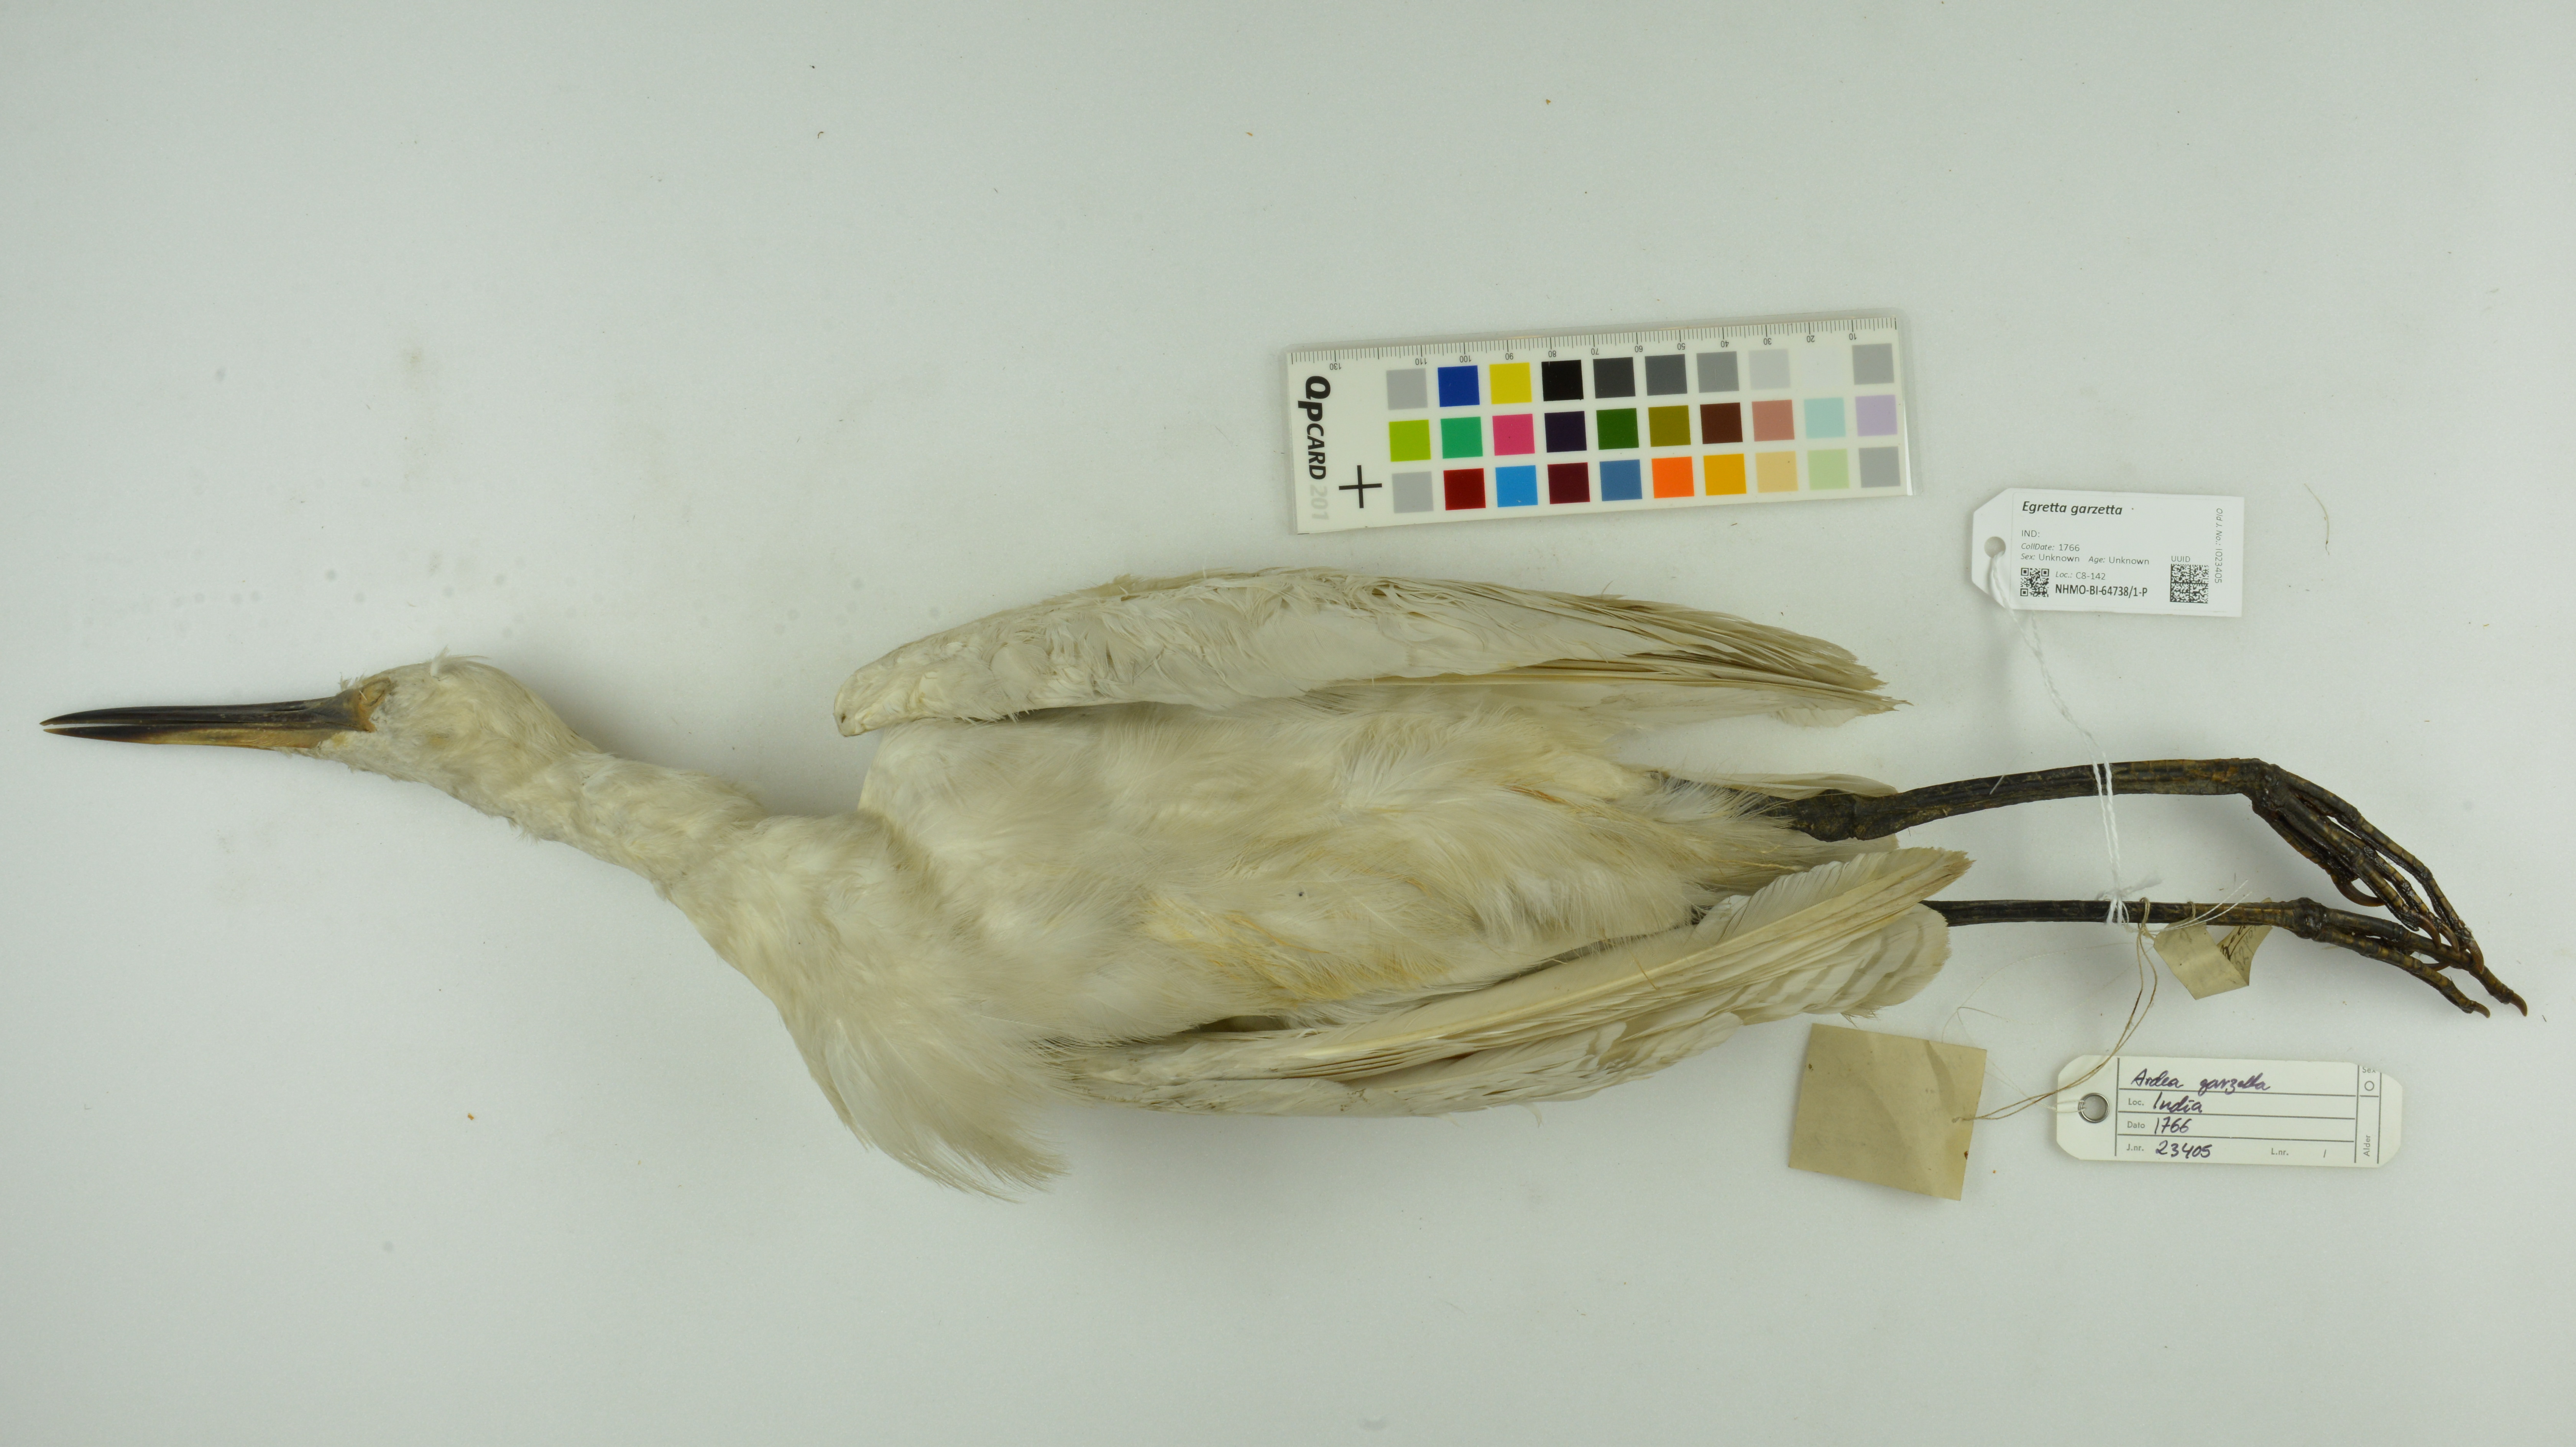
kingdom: Animalia
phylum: Chordata
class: Aves
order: Pelecaniformes
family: Ardeidae
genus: Egretta
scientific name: Egretta garzetta
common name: Little egret
